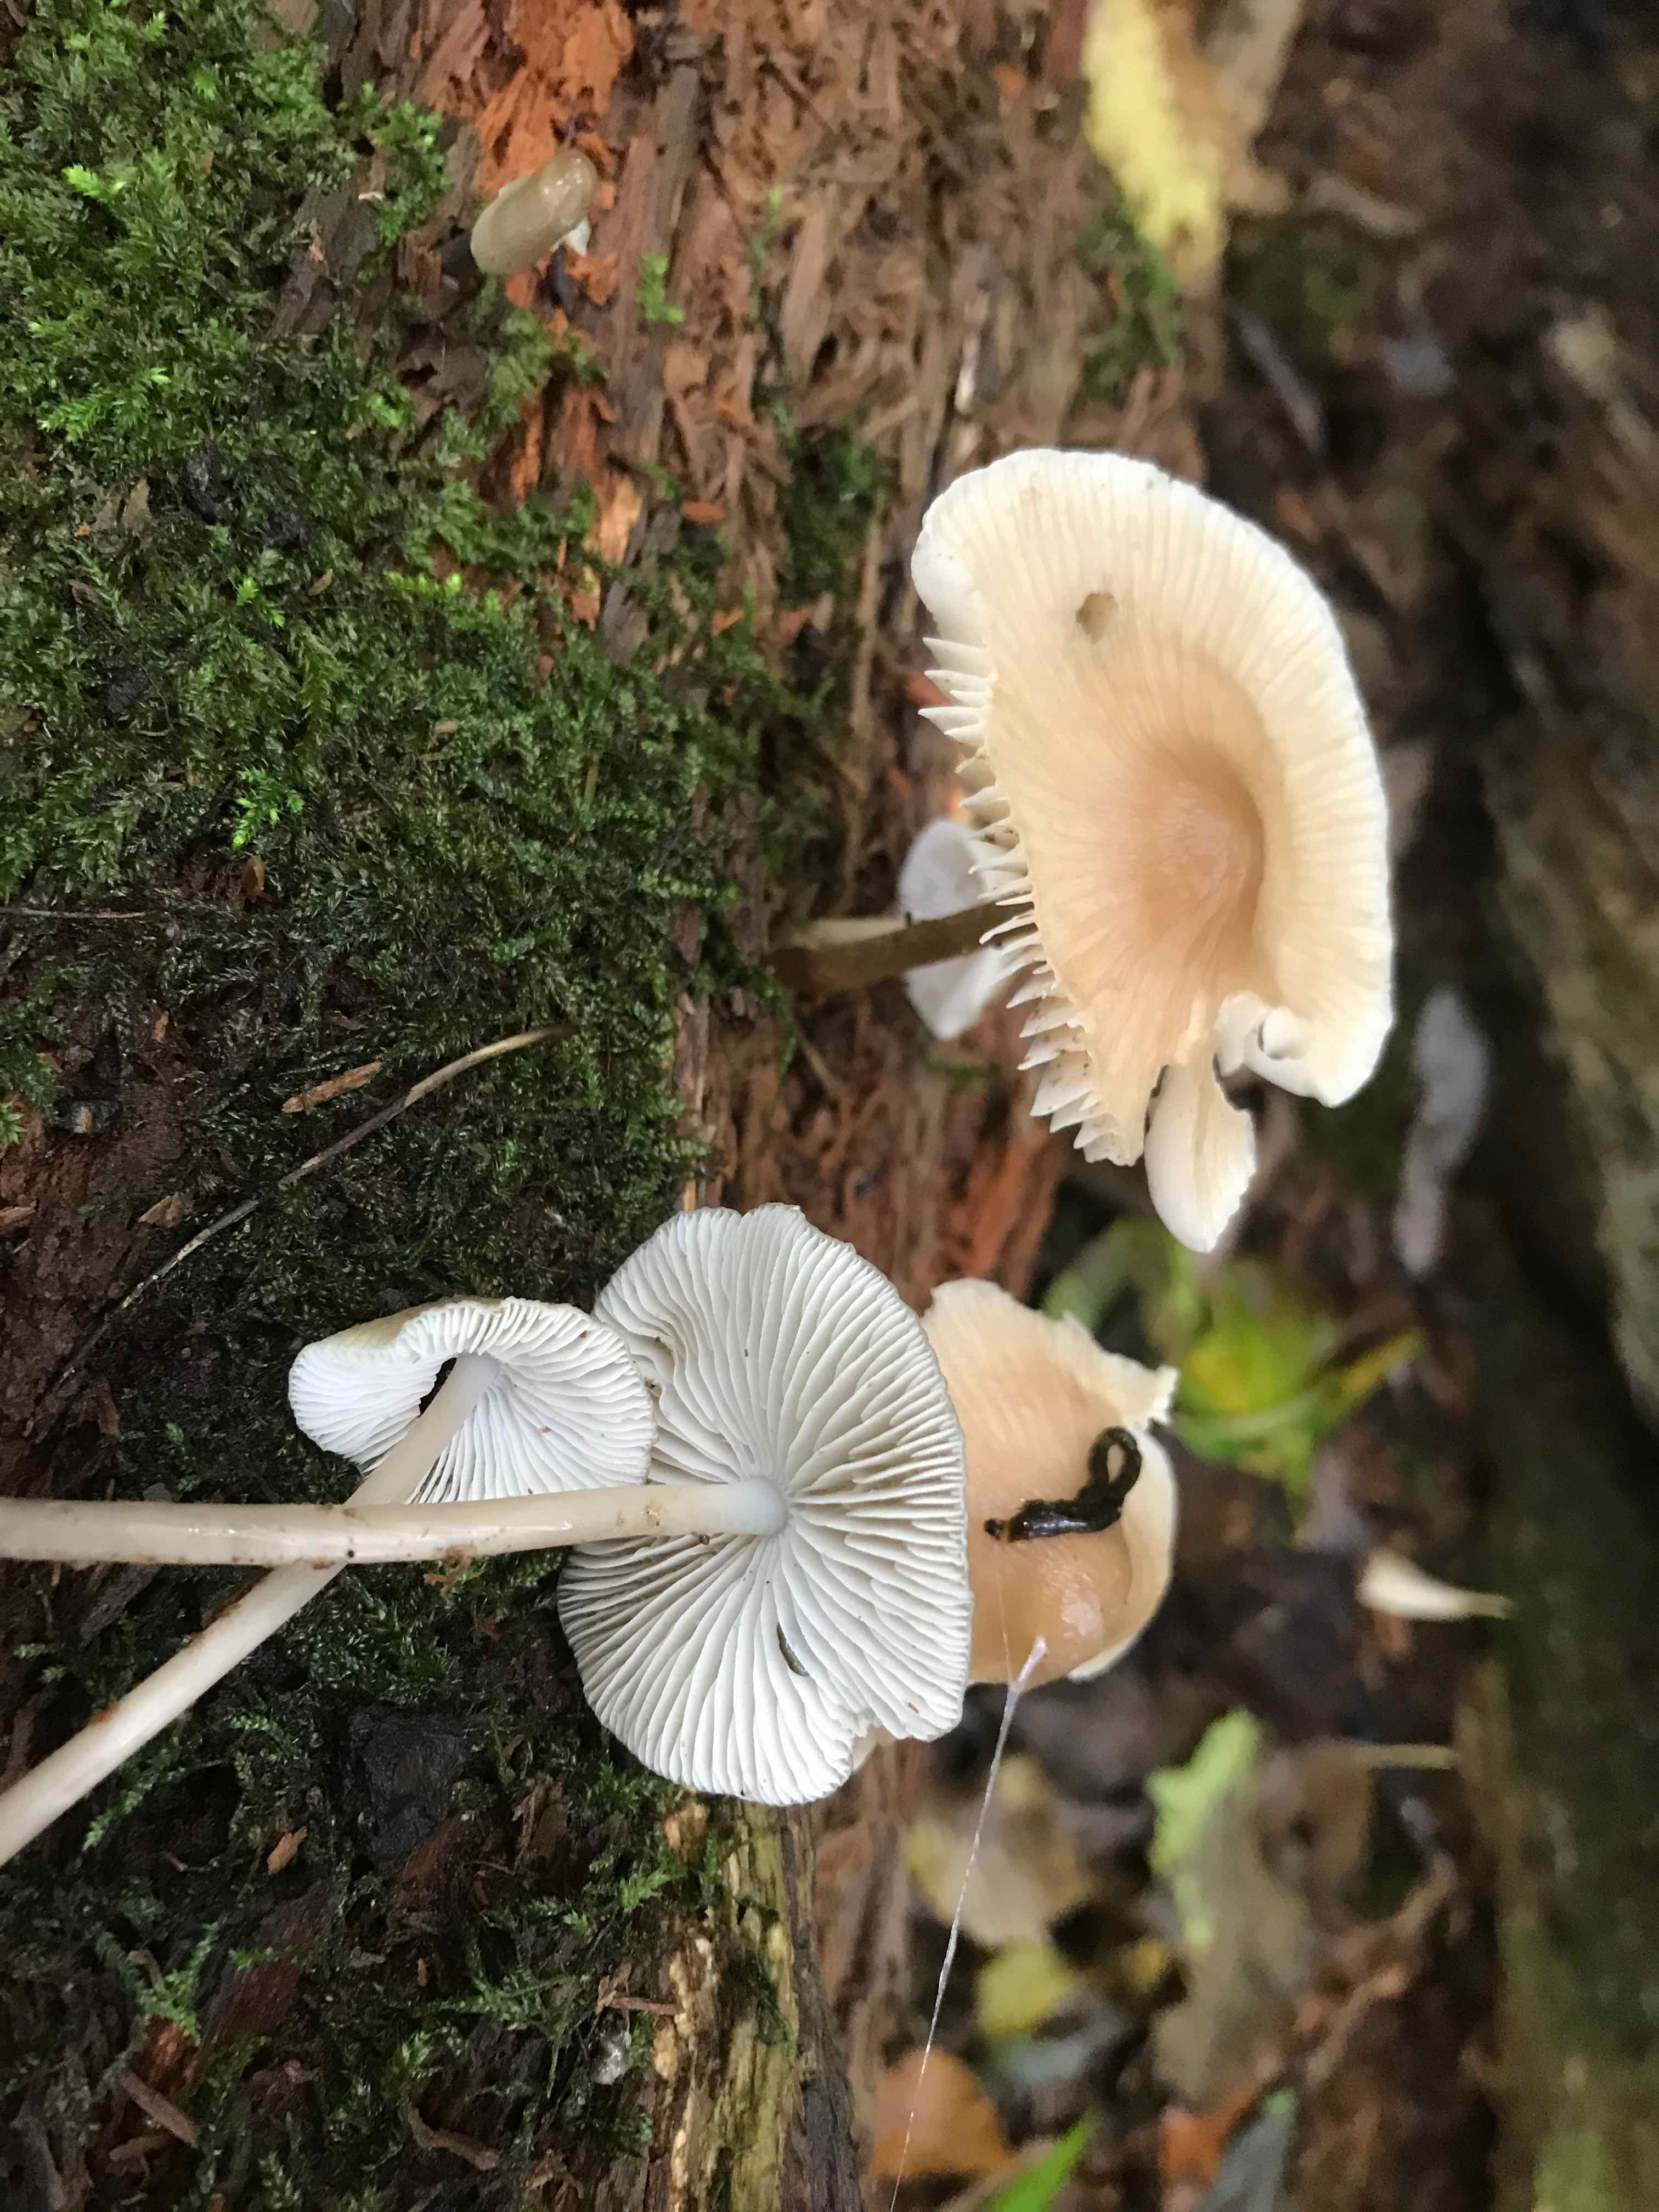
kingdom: Fungi
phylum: Basidiomycota
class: Agaricomycetes
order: Agaricales
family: Mycenaceae
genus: Mycena
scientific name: Mycena galericulata
